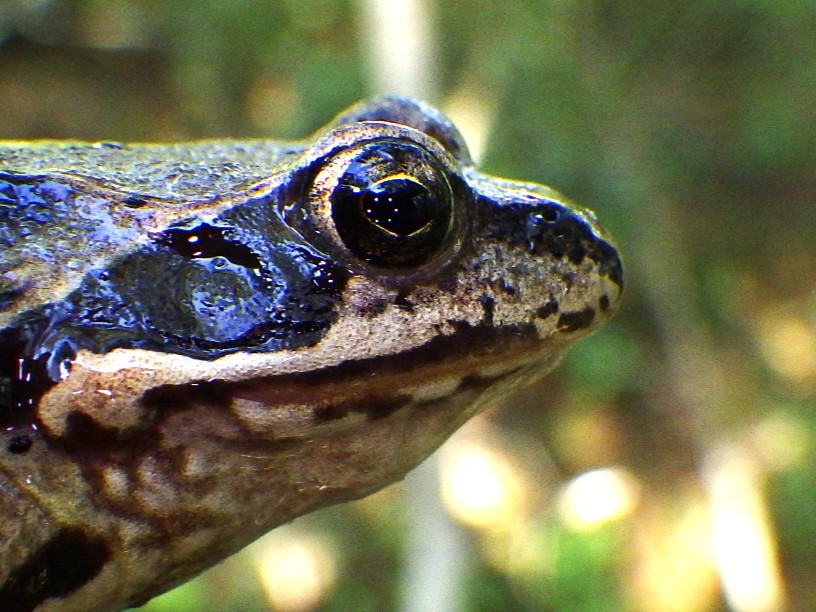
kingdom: Animalia
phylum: Chordata
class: Amphibia
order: Anura
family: Ranidae
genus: Rana
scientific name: Rana temporaria
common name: Butsnudet frø
